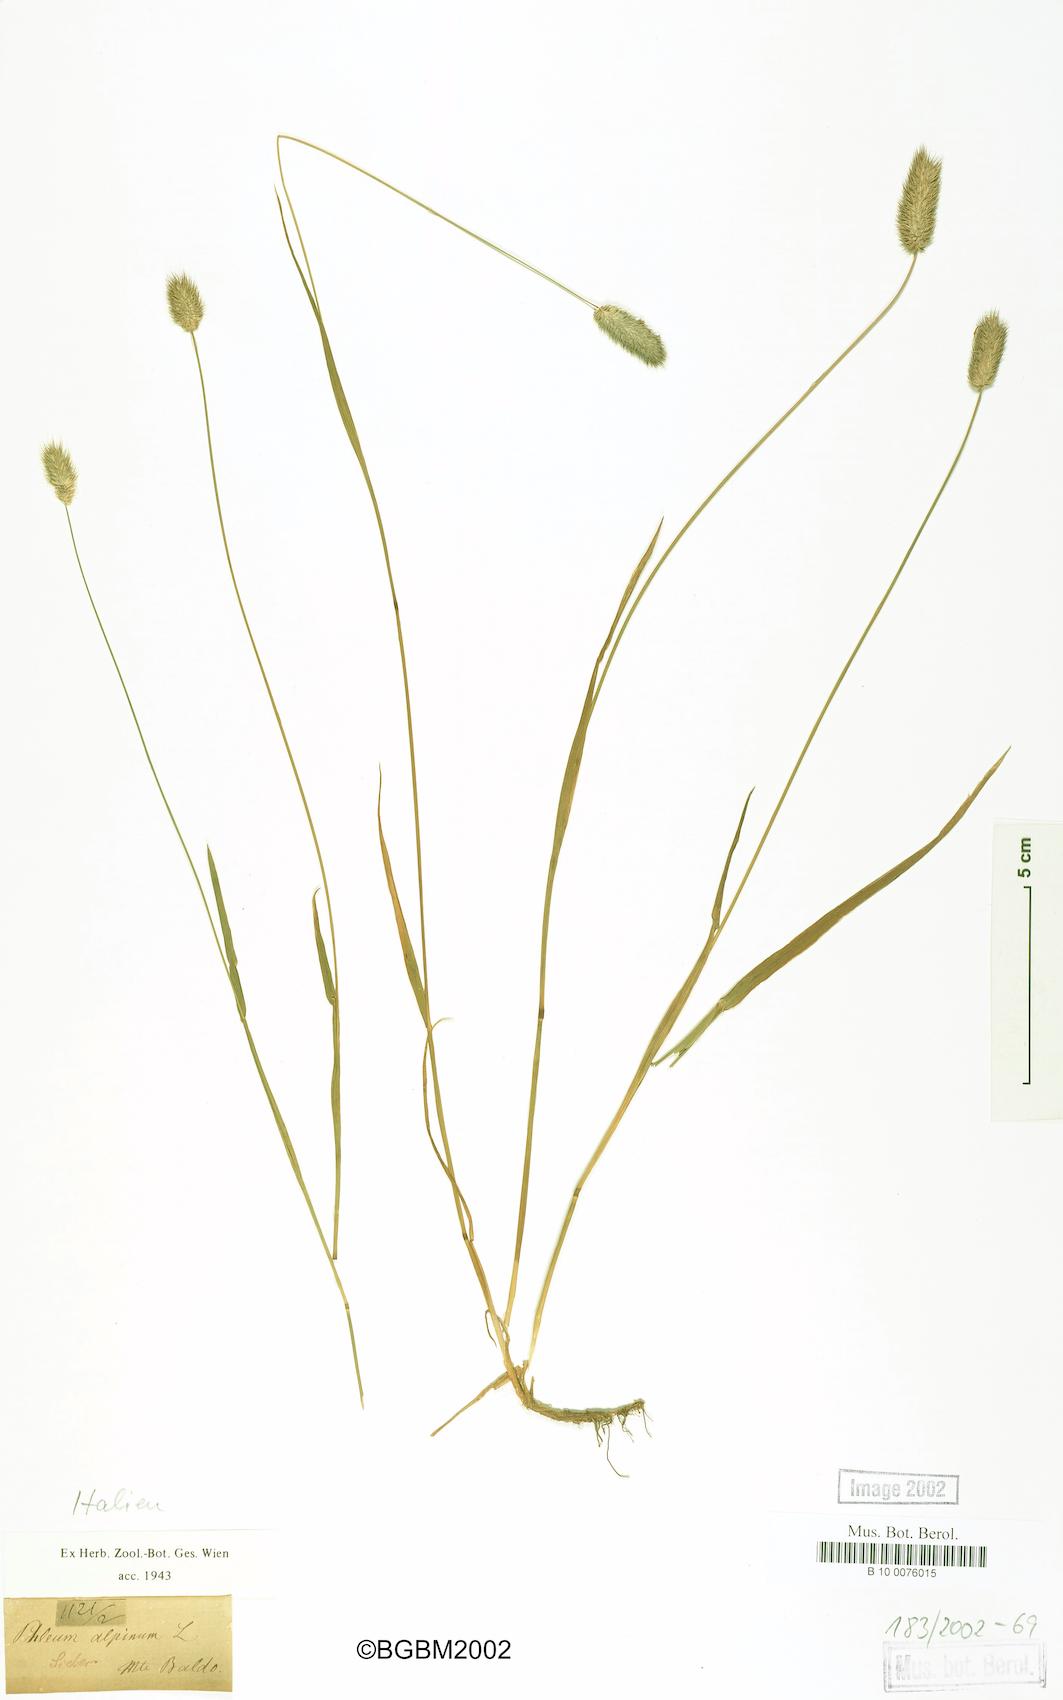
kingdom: Plantae
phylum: Tracheophyta
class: Liliopsida
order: Poales
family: Poaceae
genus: Phleum
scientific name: Phleum alpinum
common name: Alpine cat's-tail
